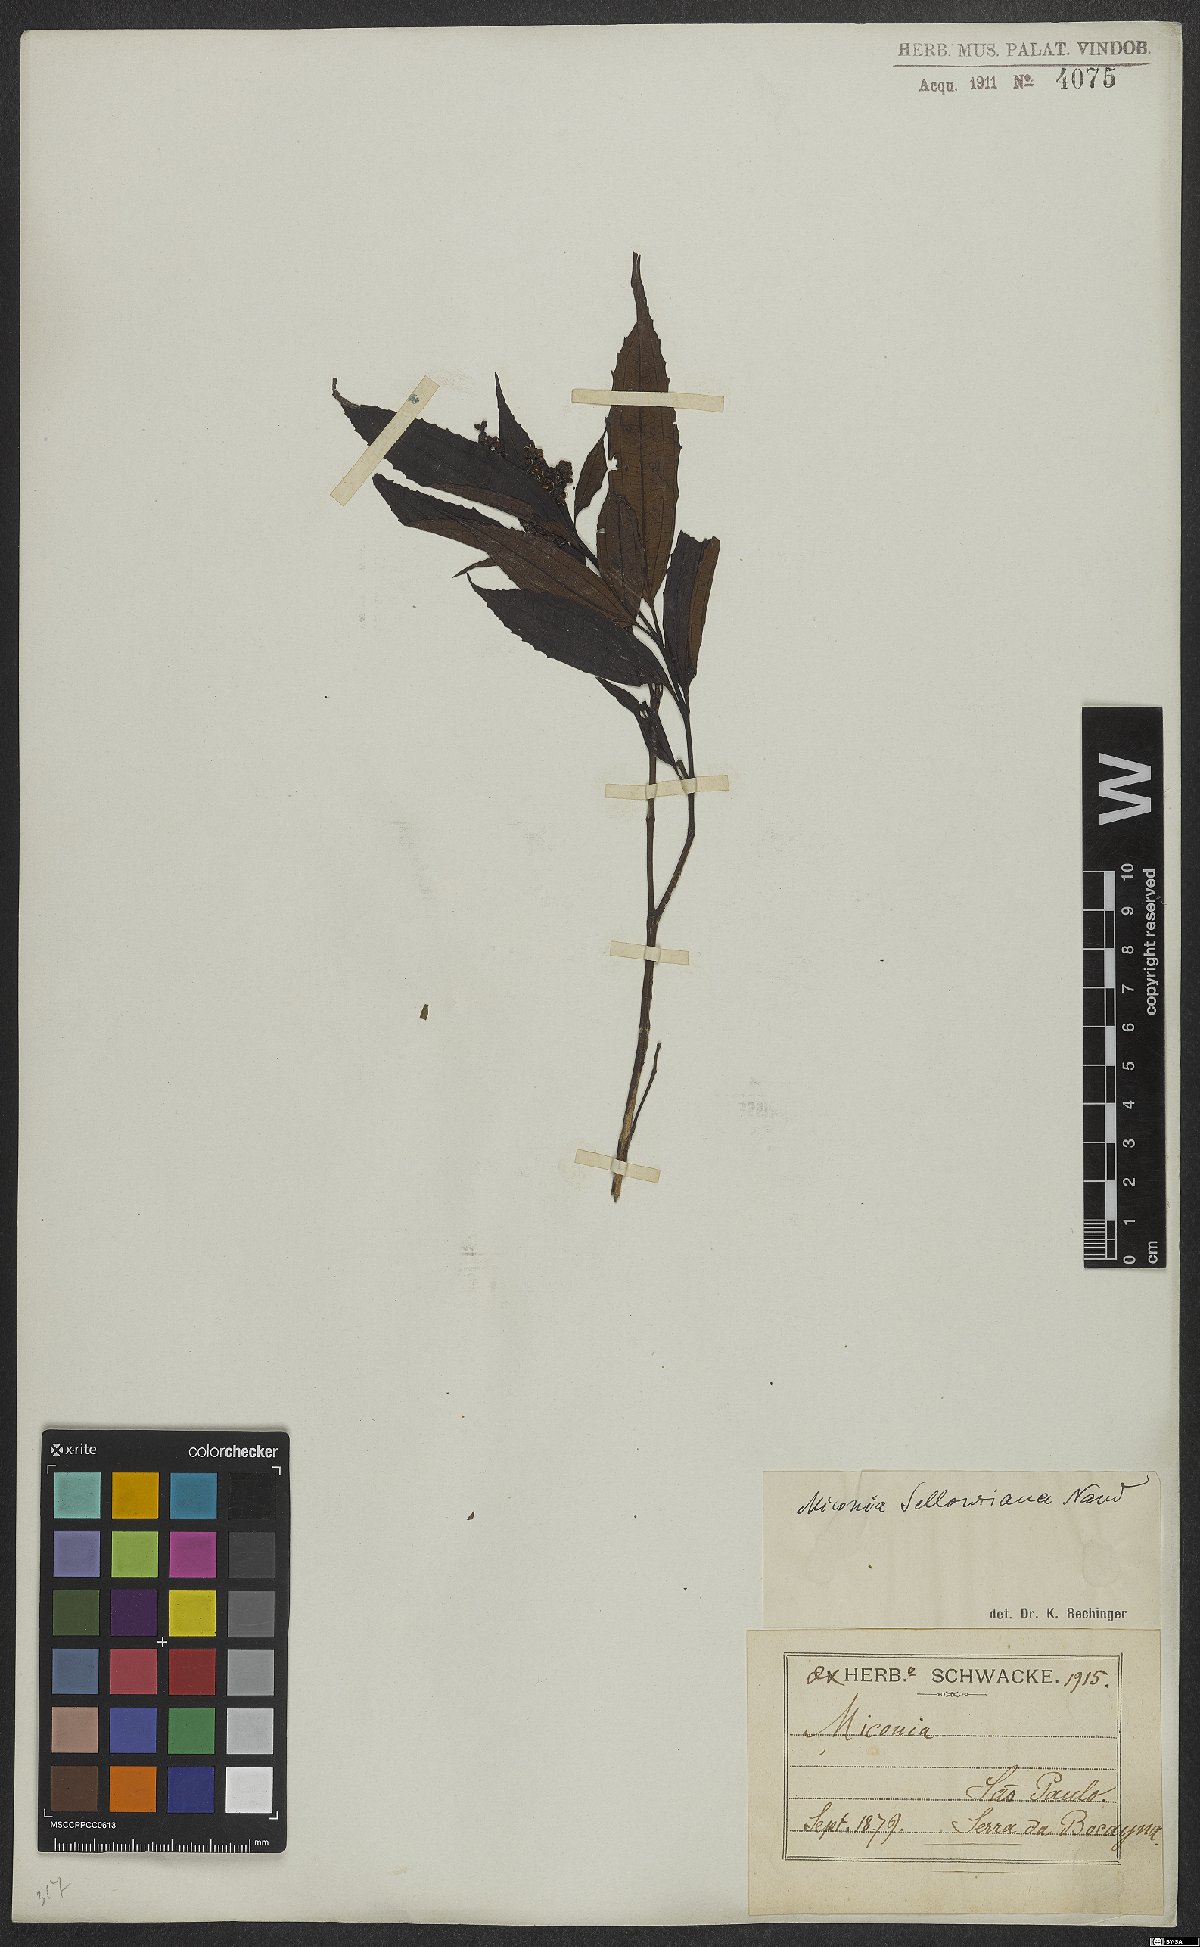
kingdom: Plantae
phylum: Tracheophyta
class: Magnoliopsida
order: Myrtales
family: Melastomataceae
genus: Miconia
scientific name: Miconia sellowiana
